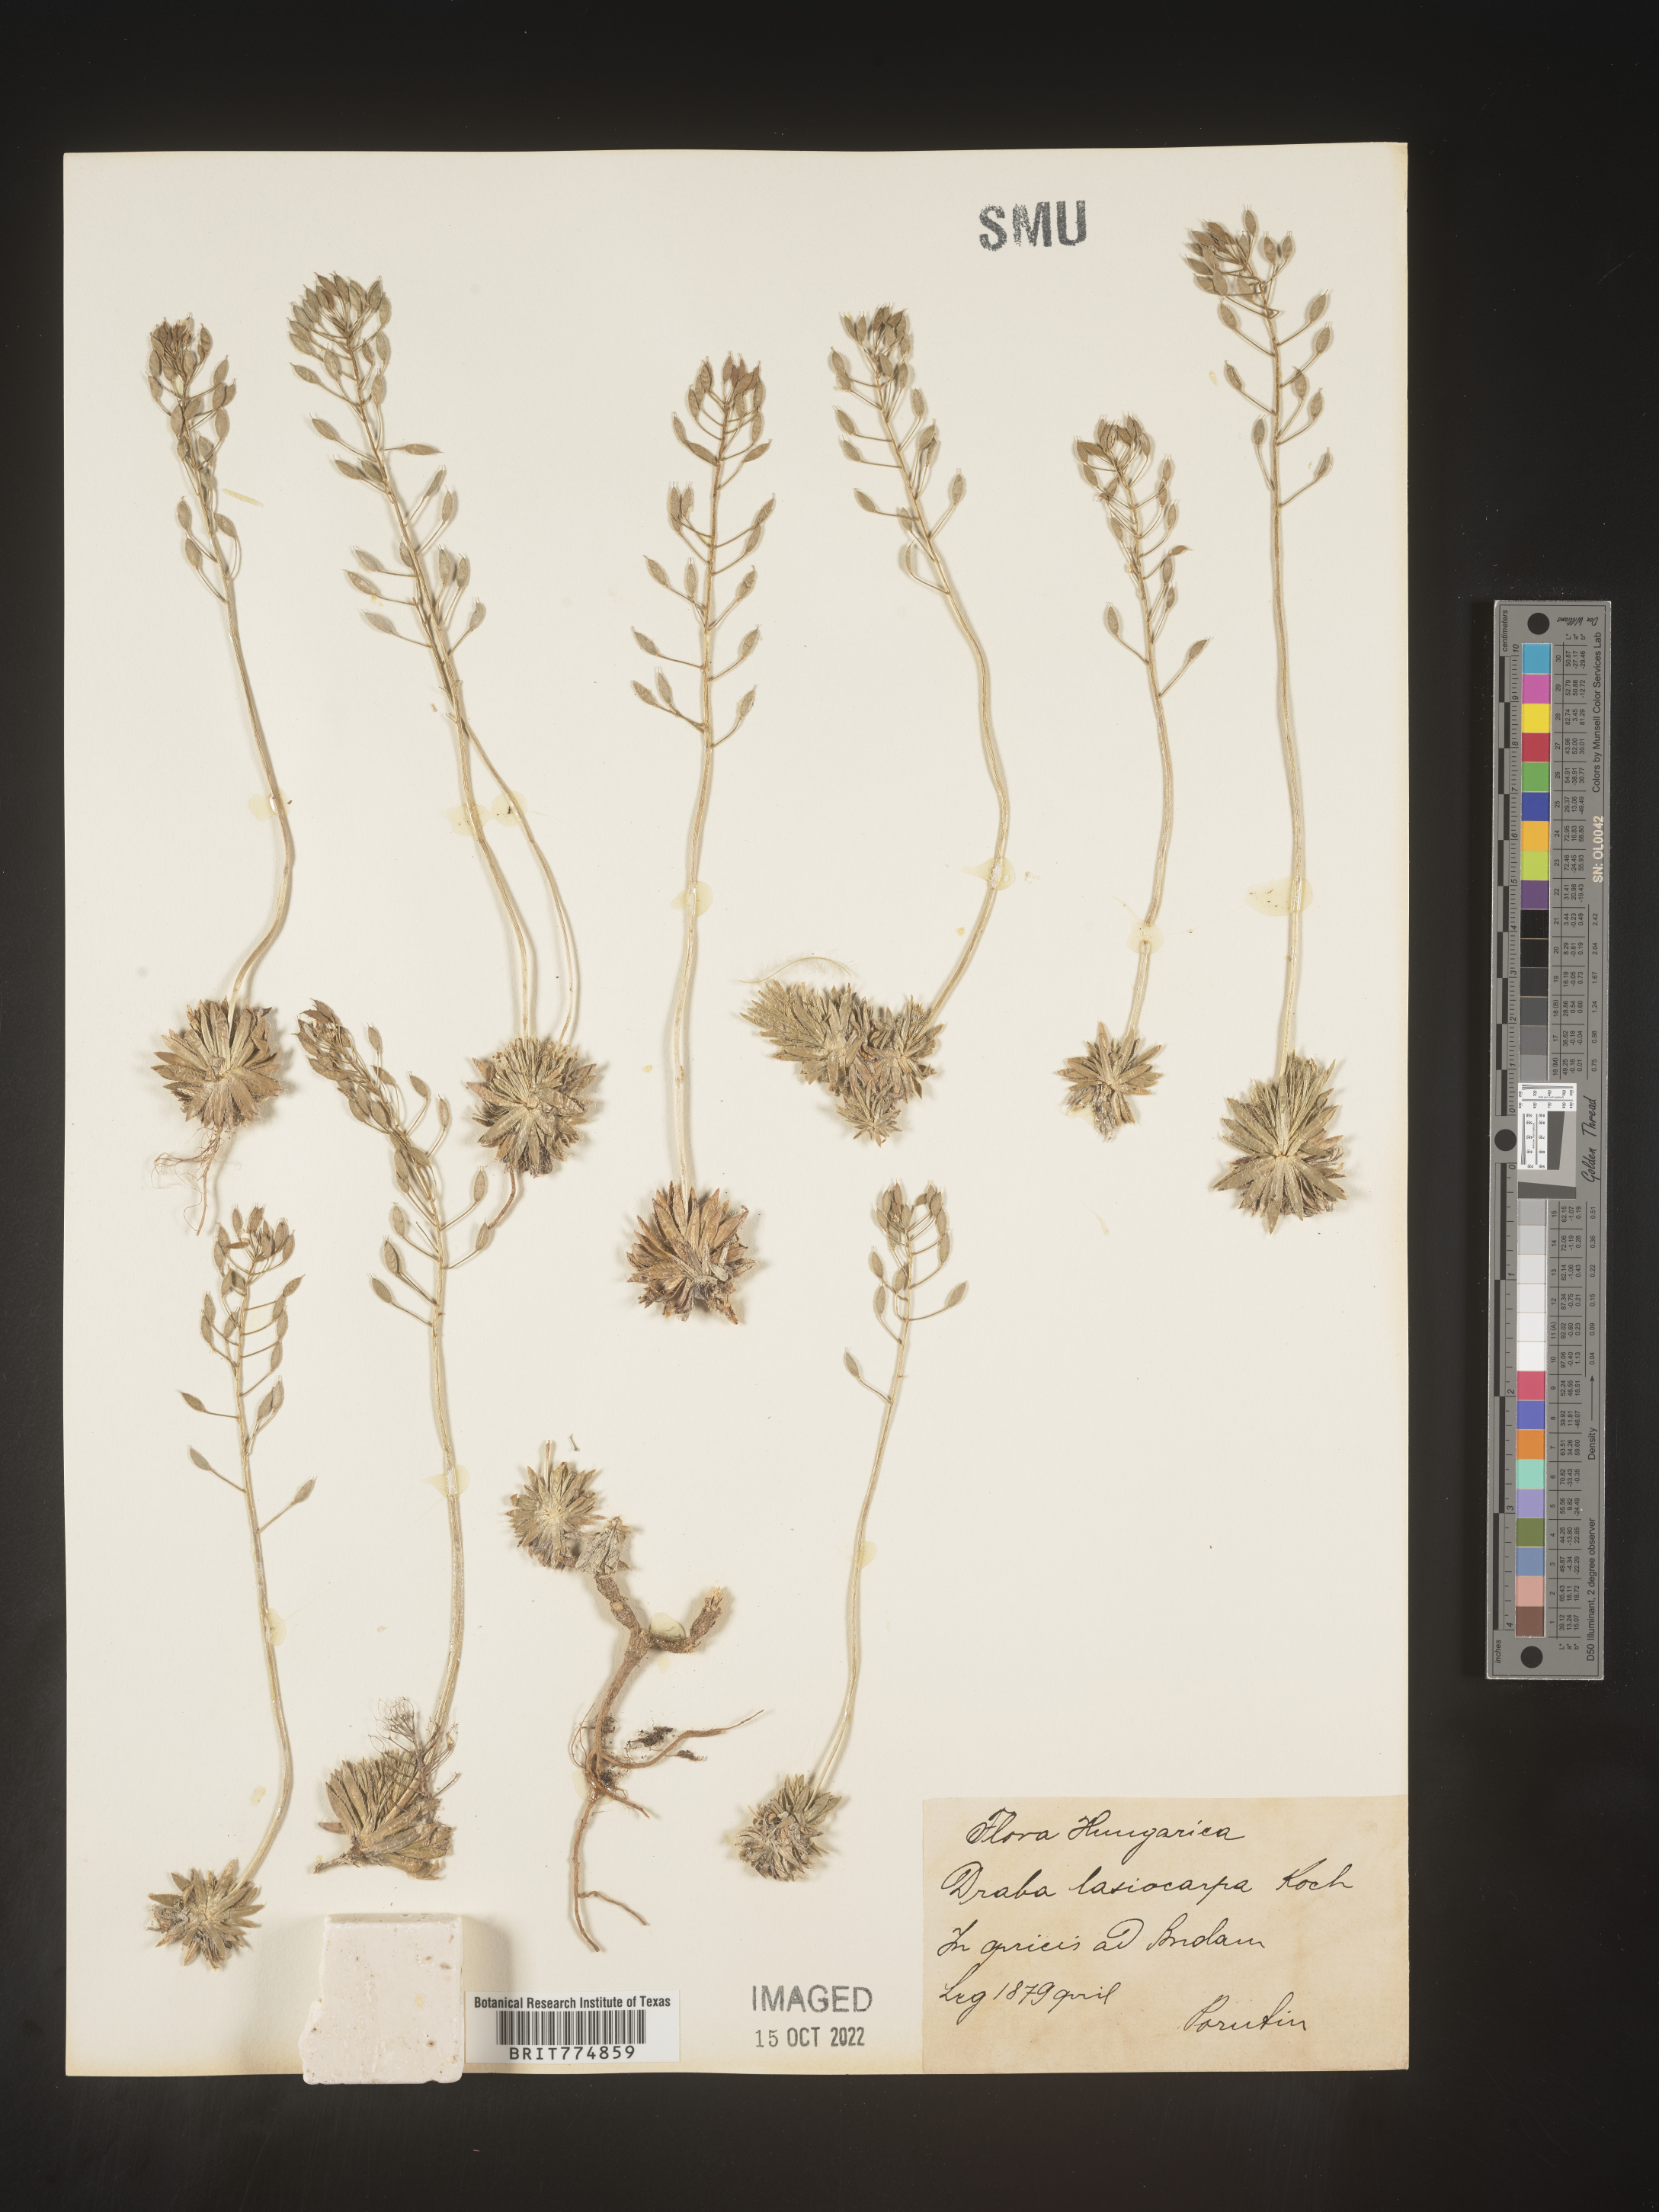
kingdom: Plantae
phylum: Tracheophyta
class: Magnoliopsida
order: Brassicales
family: Brassicaceae
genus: Draba
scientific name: Draba
